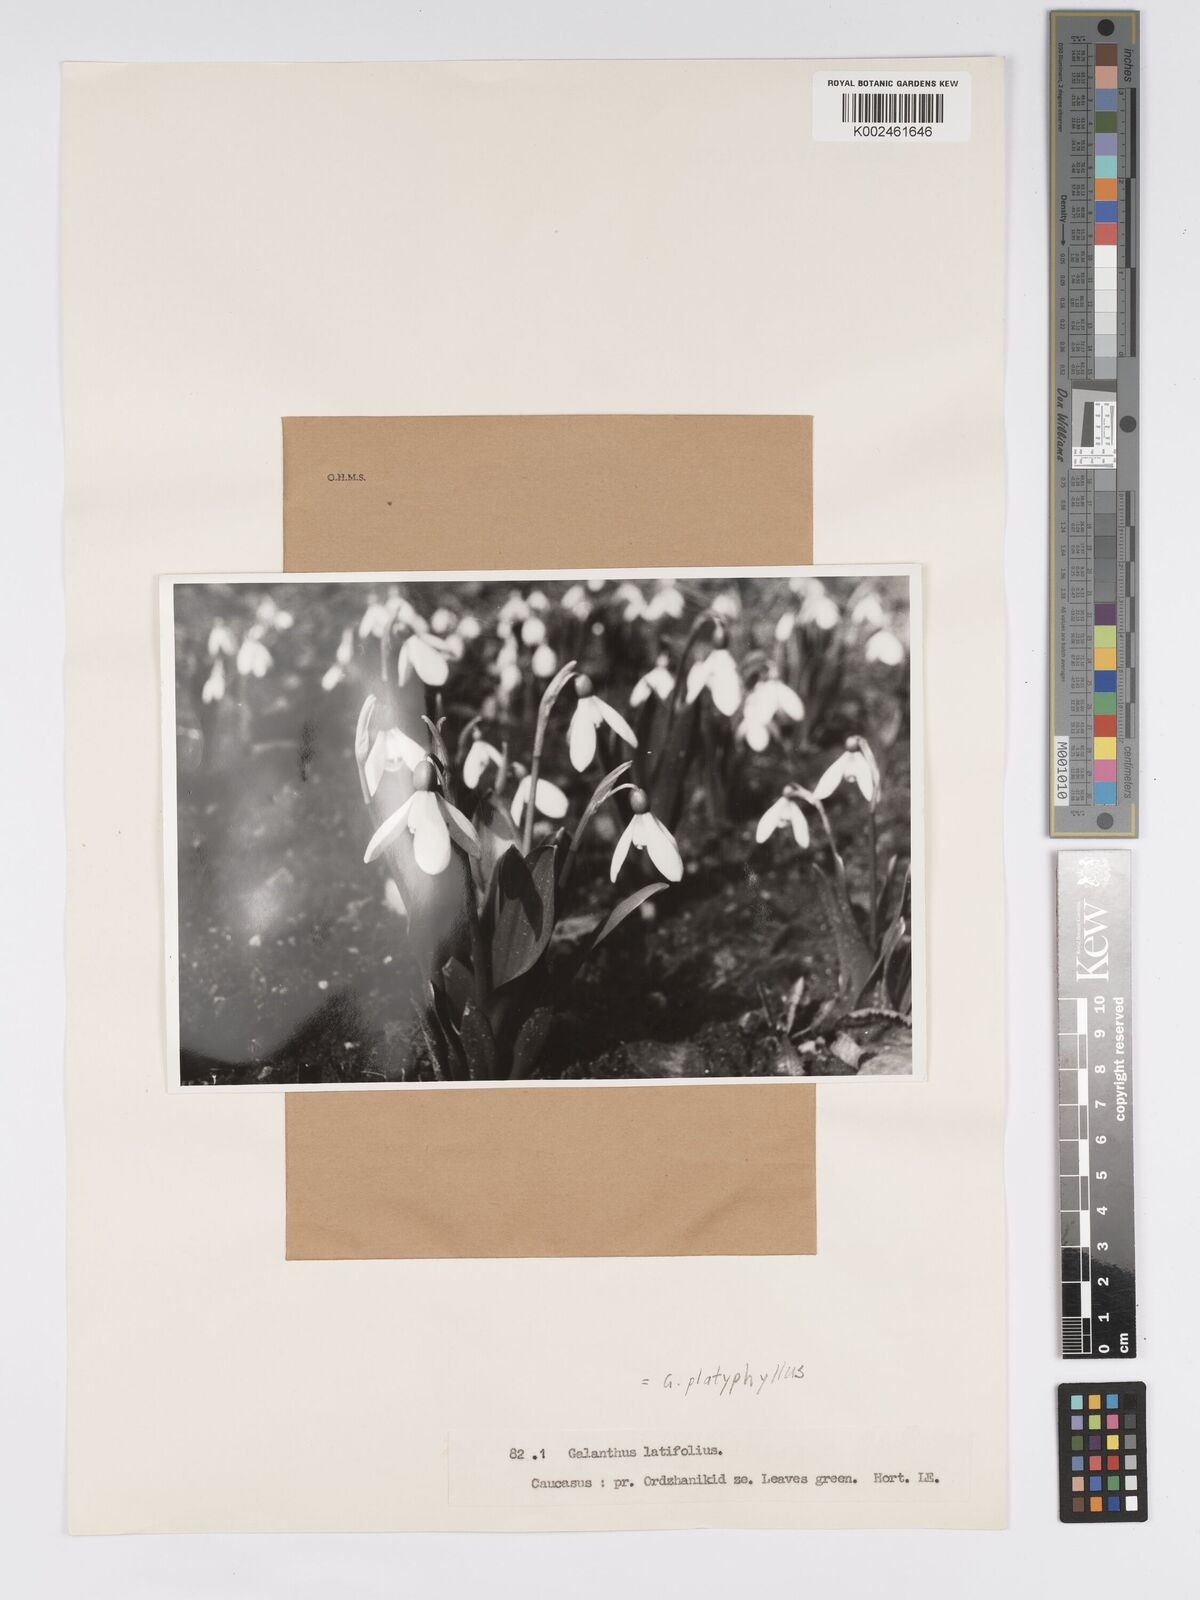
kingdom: Plantae
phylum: Tracheophyta
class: Liliopsida
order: Asparagales
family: Amaryllidaceae
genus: Galanthus
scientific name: Galanthus platyphyllus
